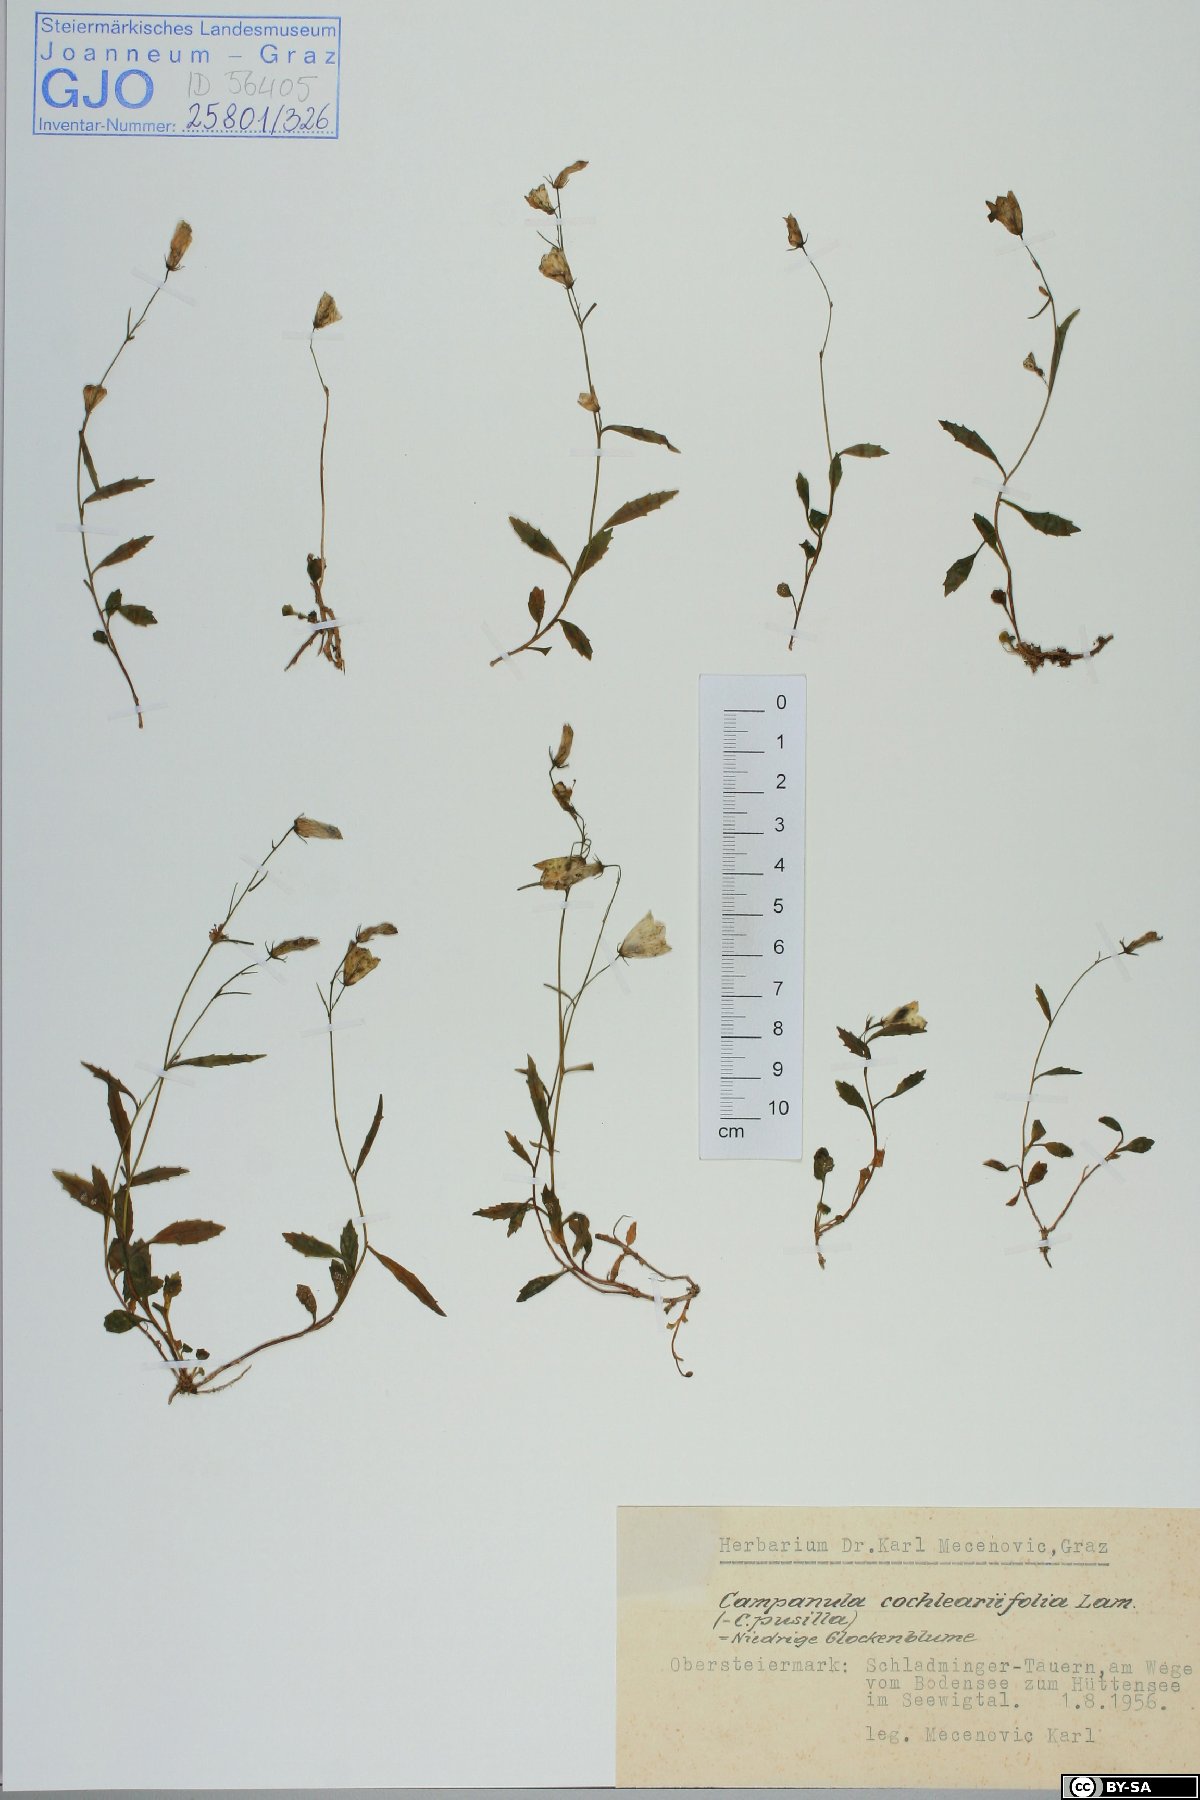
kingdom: Plantae
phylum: Tracheophyta
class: Magnoliopsida
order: Asterales
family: Campanulaceae
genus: Campanula
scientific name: Campanula cochleariifolia
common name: Fairies'-thimbles
